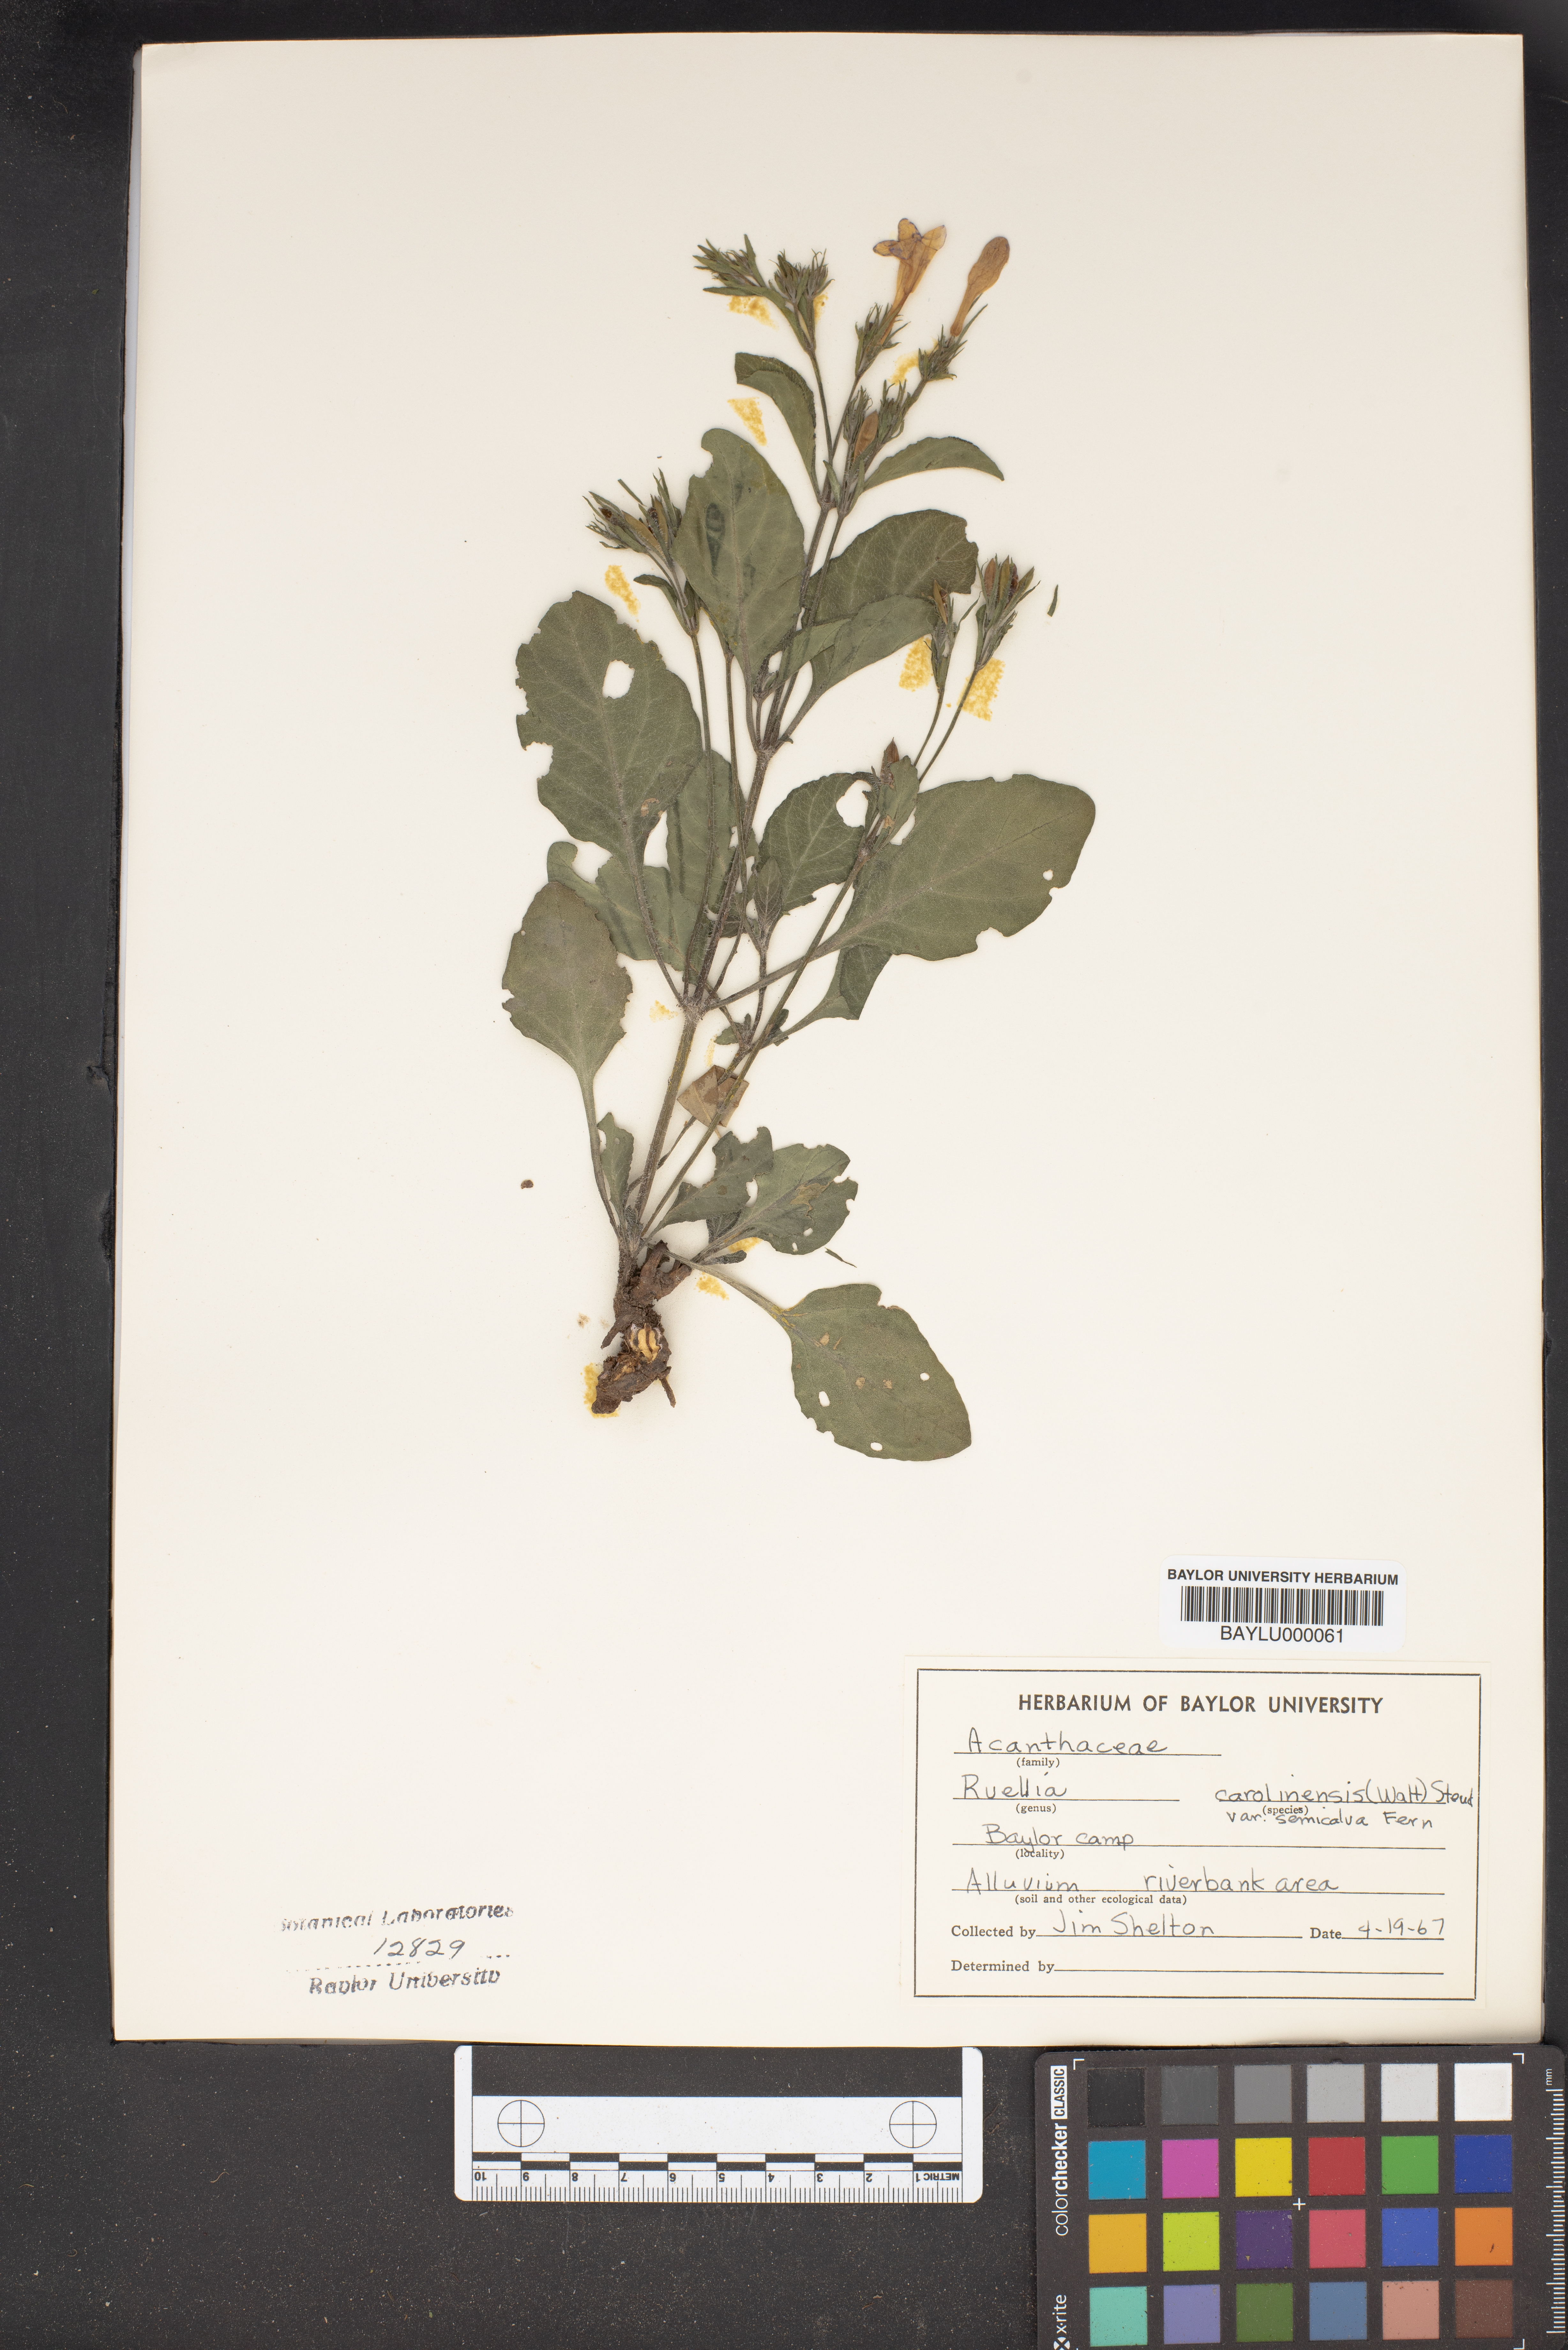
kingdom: Plantae
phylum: Tracheophyta
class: Magnoliopsida
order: Lamiales
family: Acanthaceae
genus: Ruellia
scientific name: Ruellia caroliniensis
